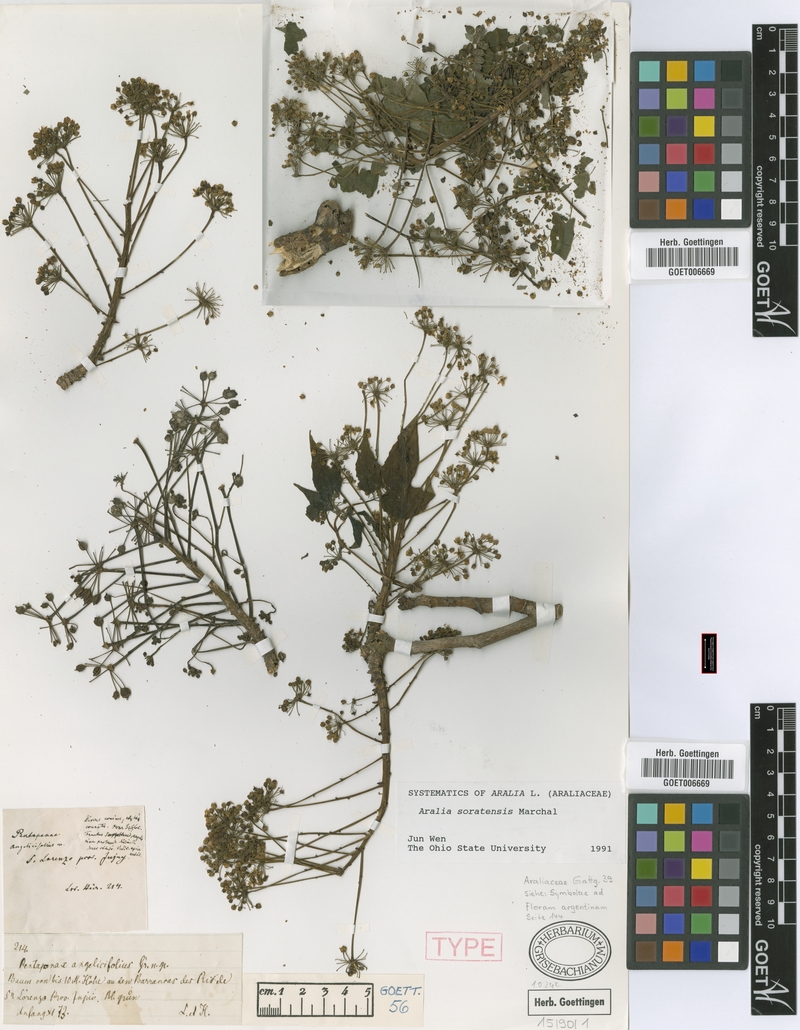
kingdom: Plantae
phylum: Tracheophyta
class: Magnoliopsida
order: Apiales
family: Araliaceae
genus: Aralia
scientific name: Aralia soratensis
